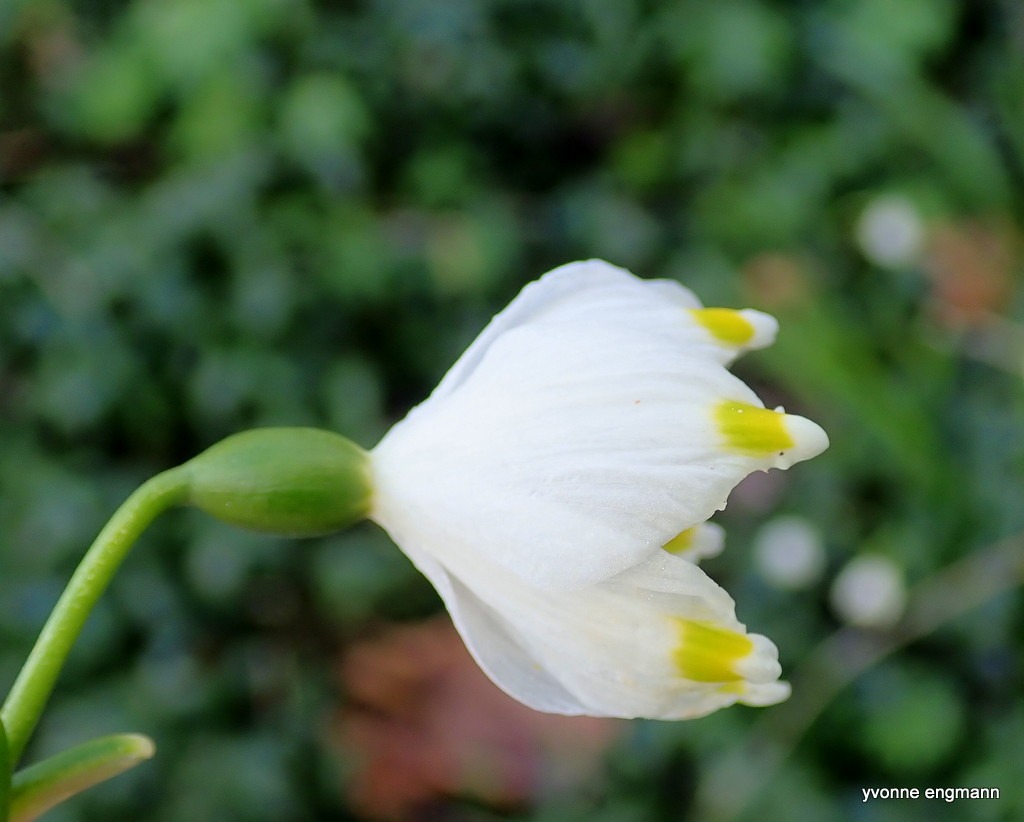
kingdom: Plantae
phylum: Tracheophyta
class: Liliopsida
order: Asparagales
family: Amaryllidaceae
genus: Leucojum
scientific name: Leucojum vernum
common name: Dorthealilje
